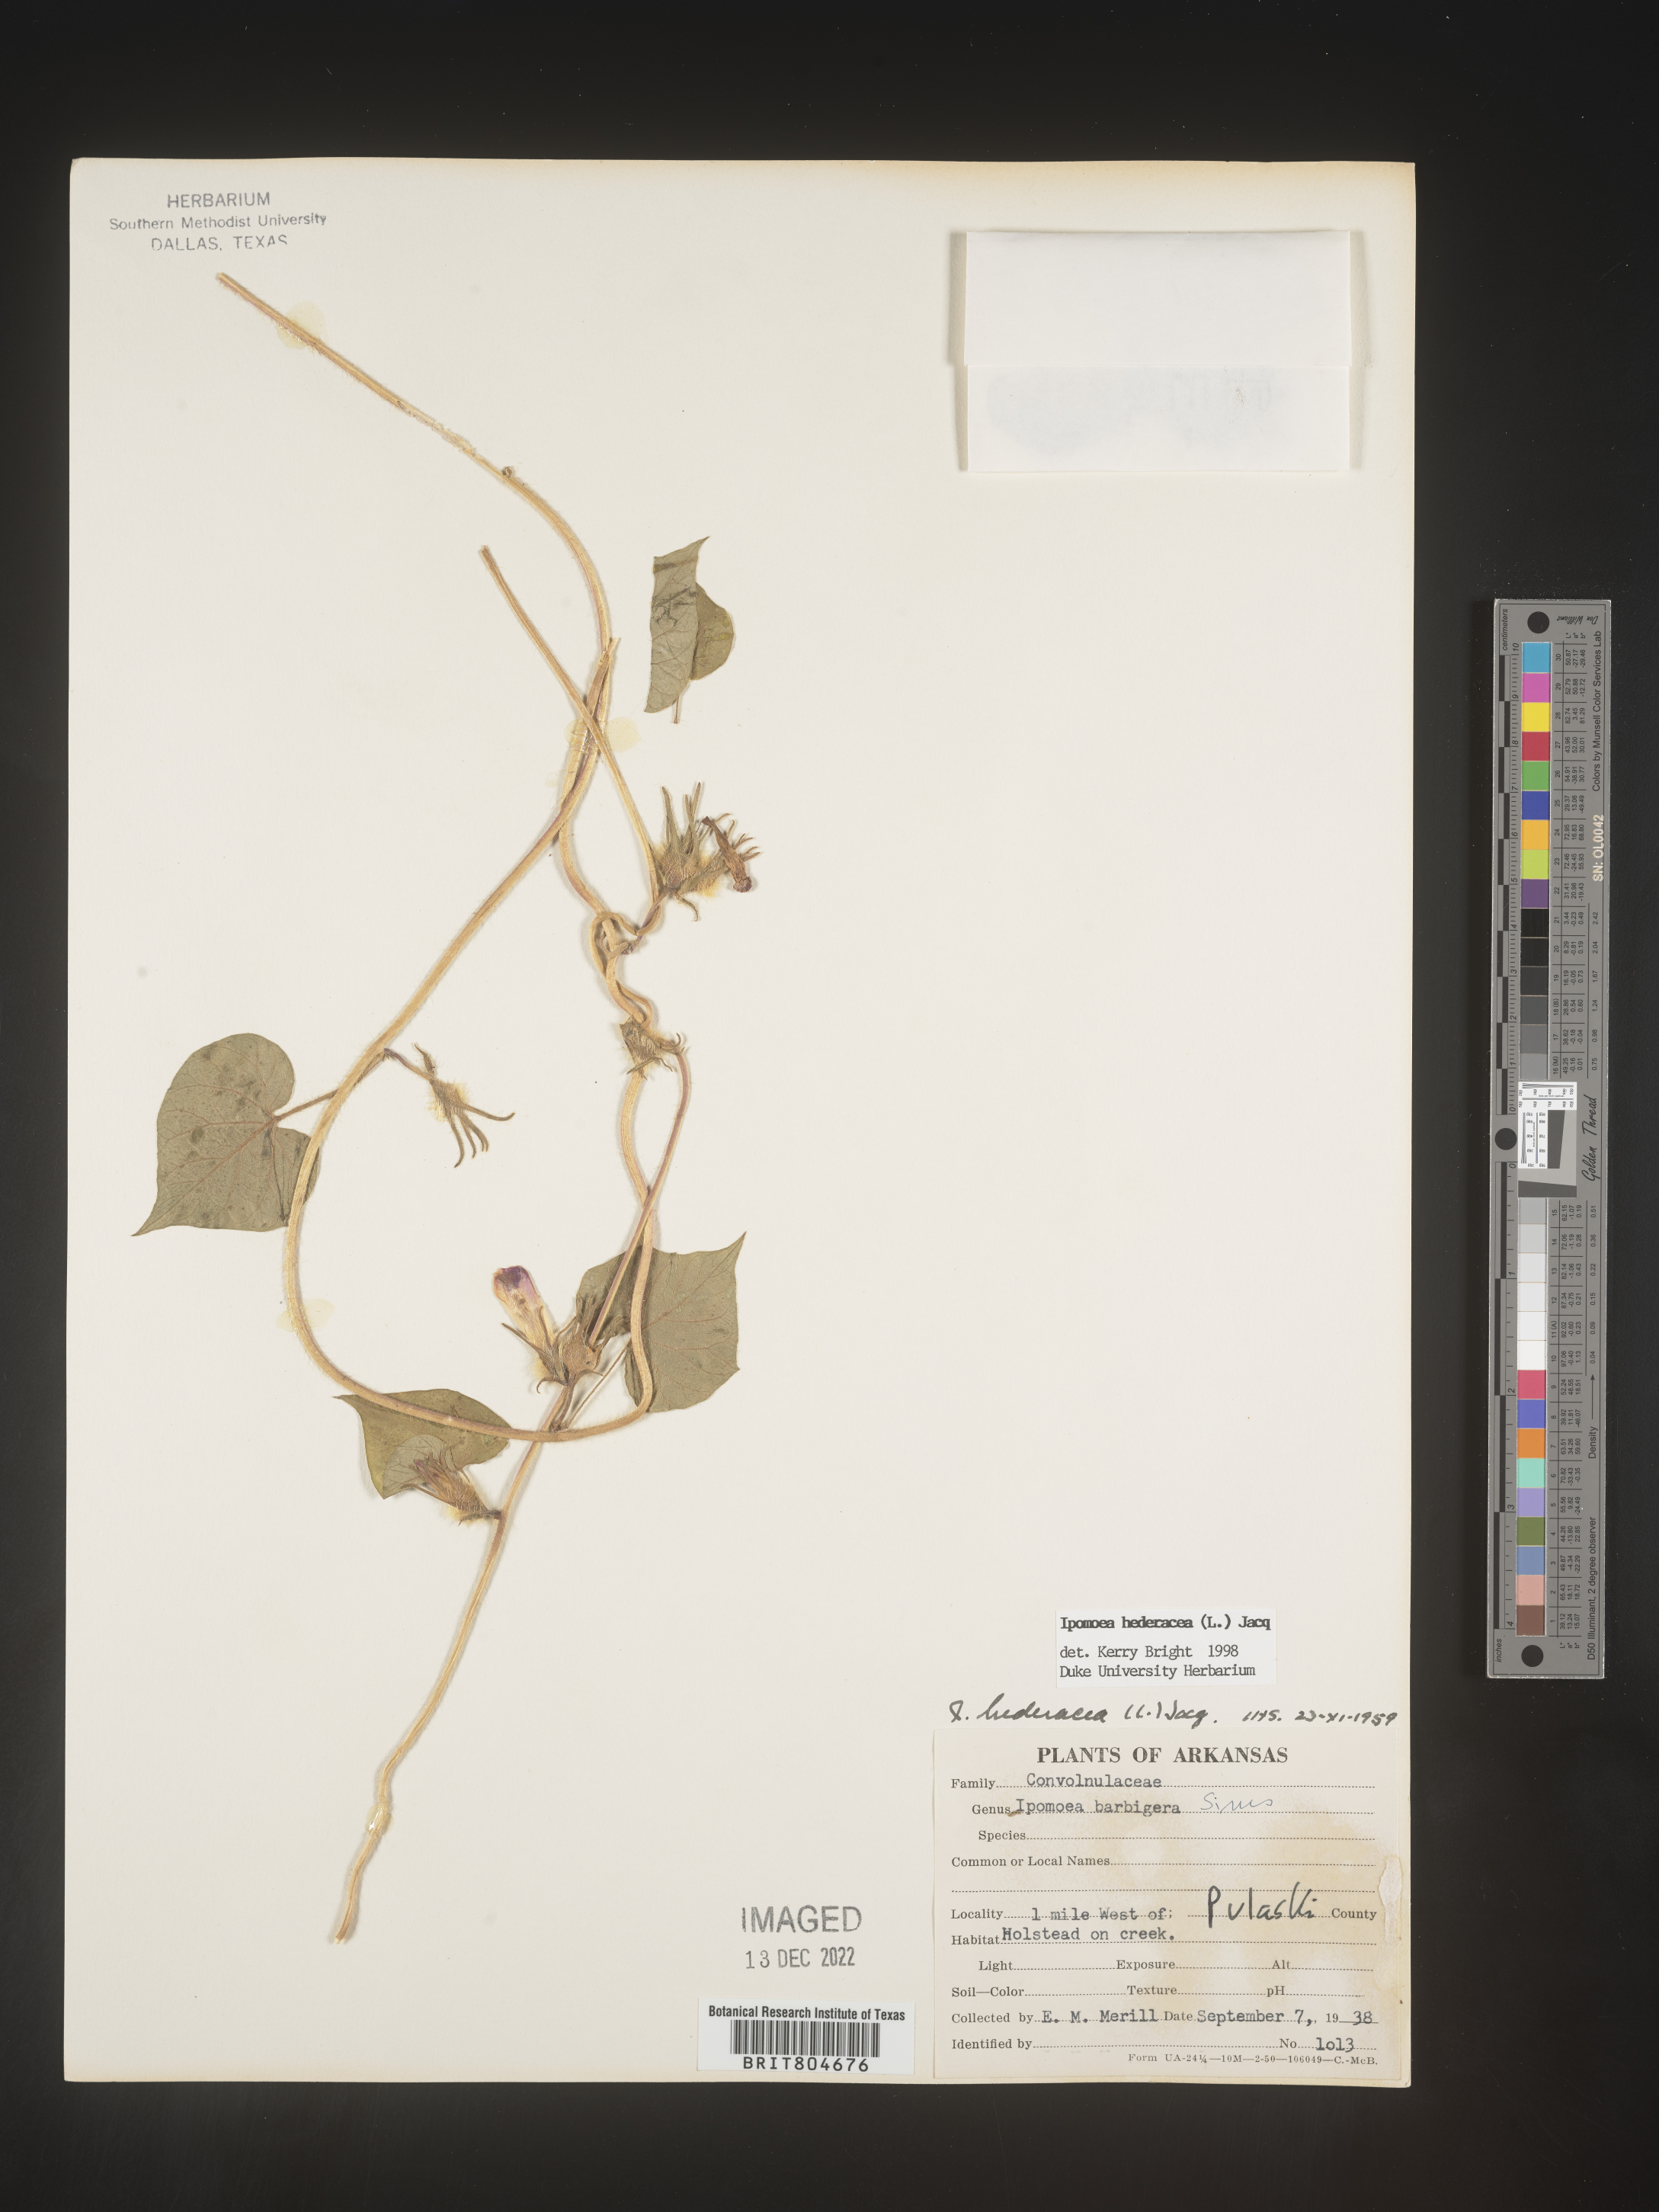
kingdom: Plantae
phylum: Tracheophyta
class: Magnoliopsida
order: Solanales
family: Convolvulaceae
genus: Ipomoea
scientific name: Ipomoea hederacea
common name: Ivy-leaved morning-glory
